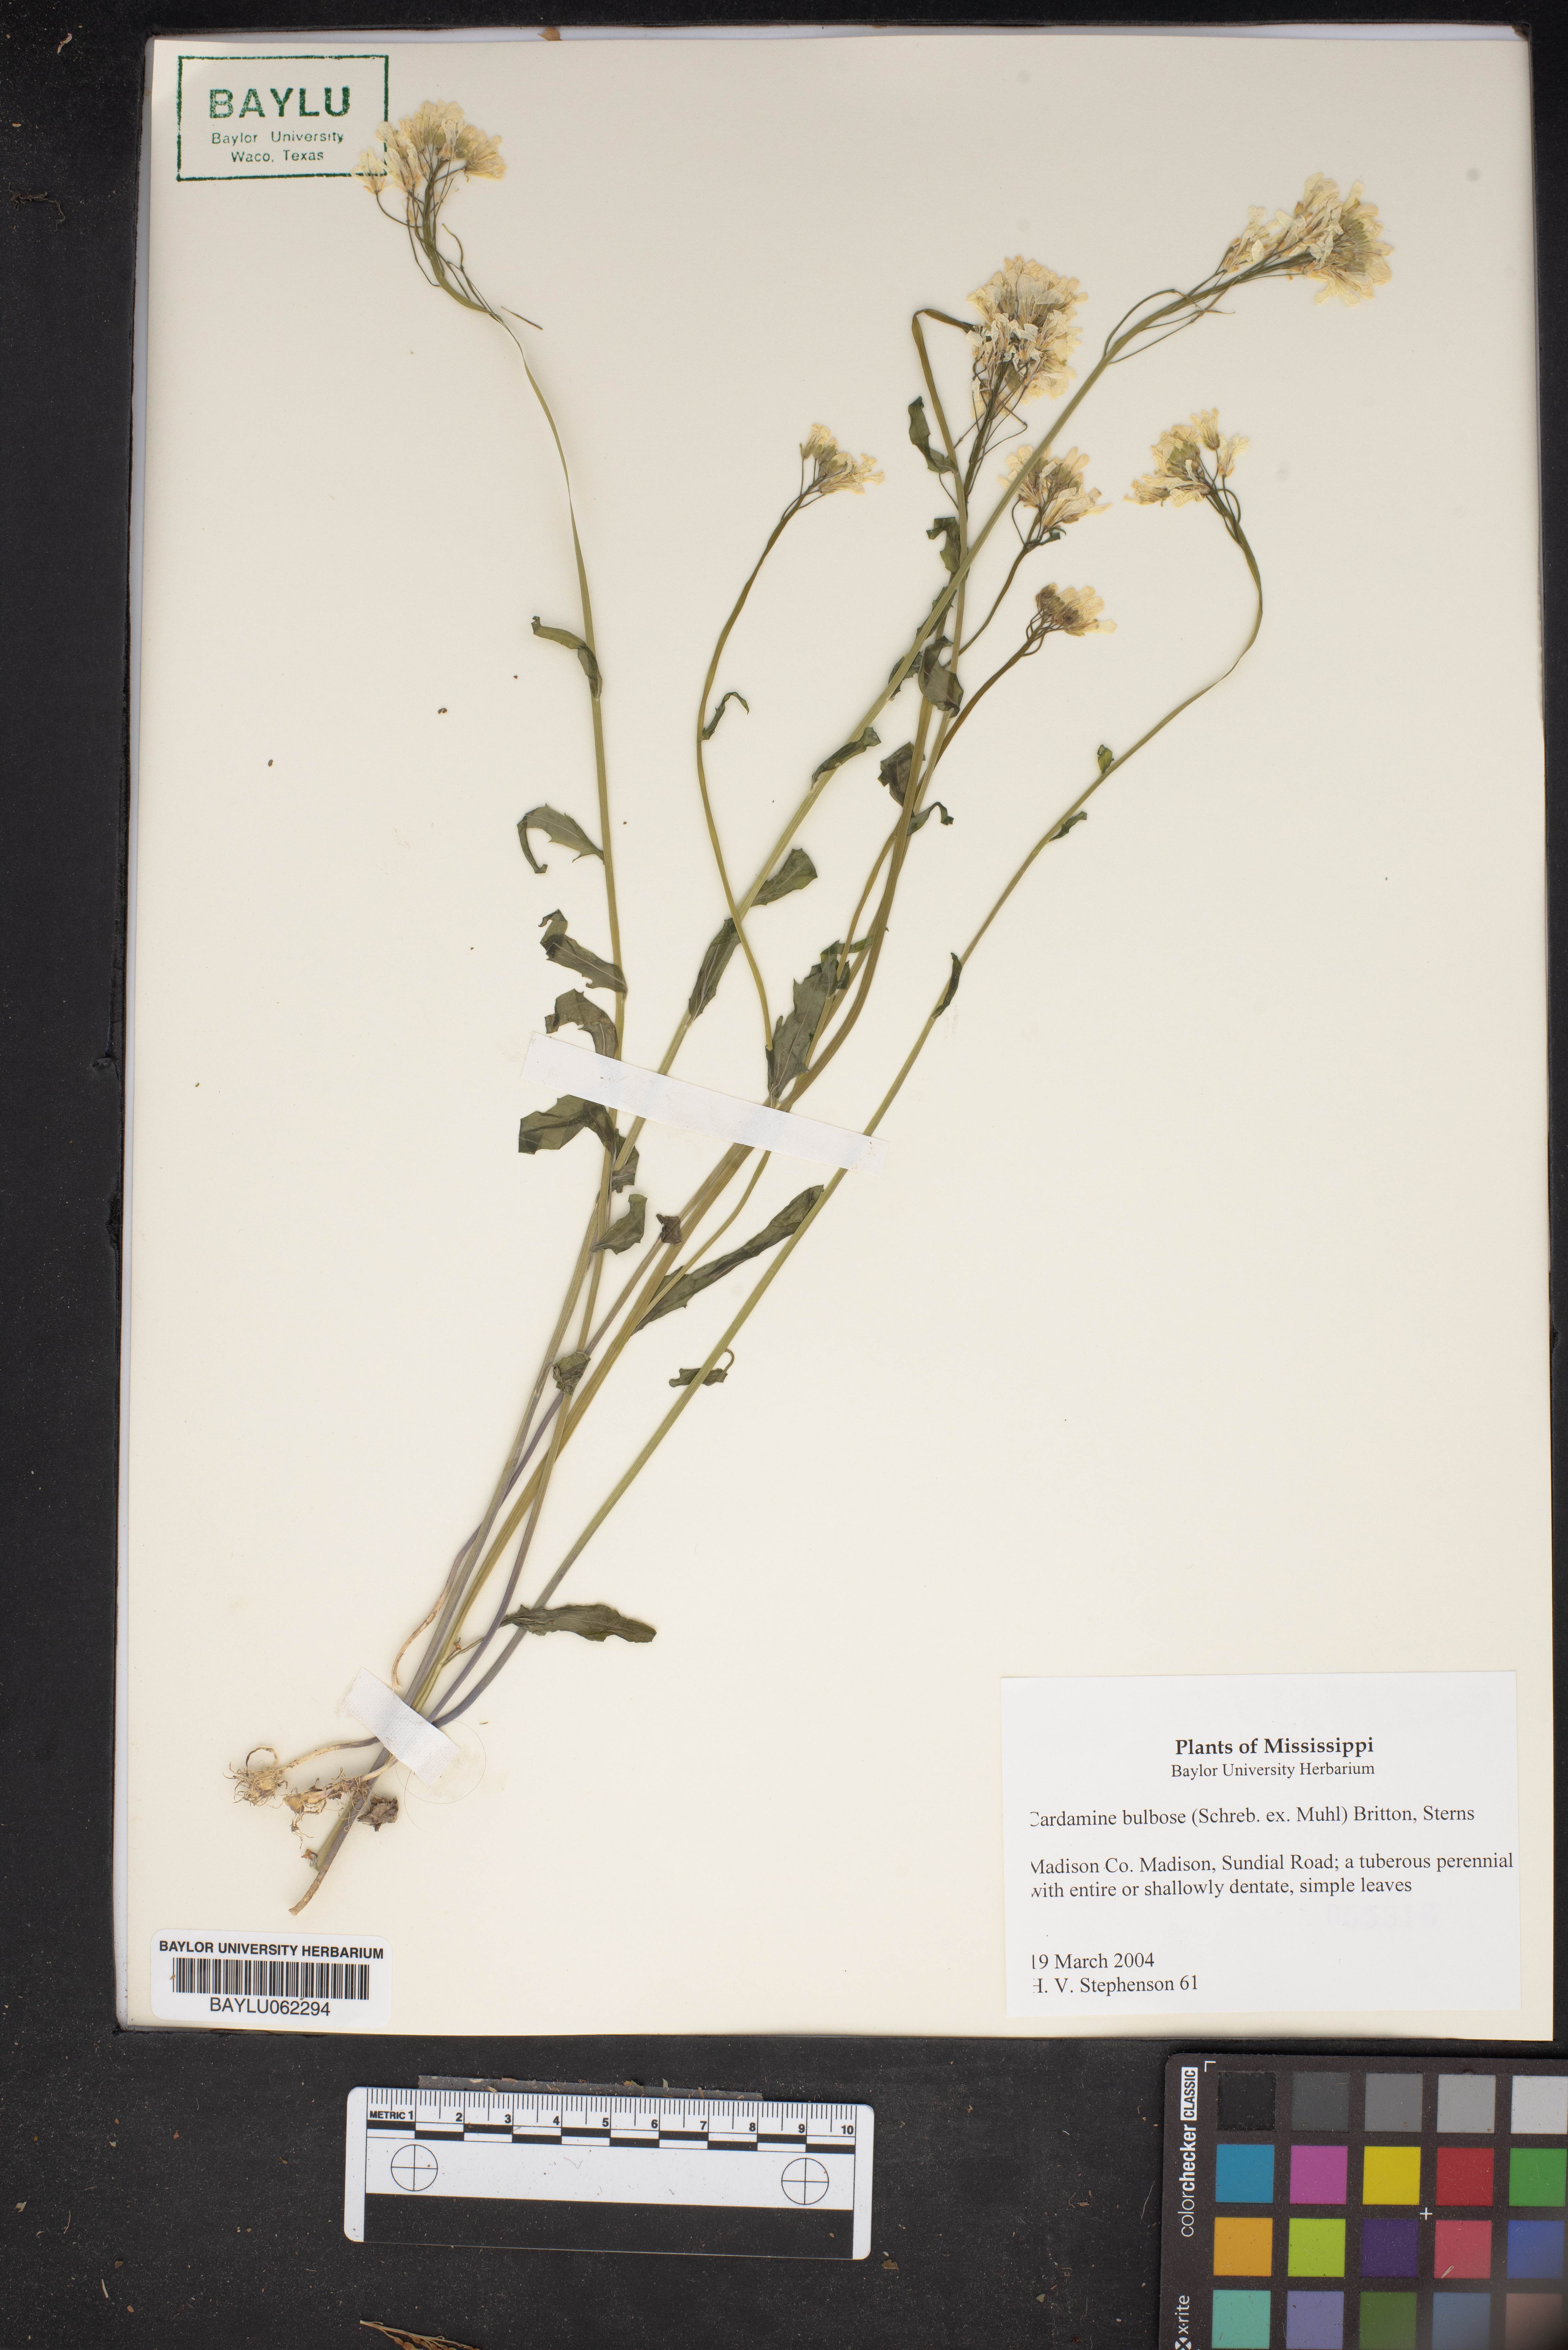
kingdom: Plantae
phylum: Tracheophyta
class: Magnoliopsida
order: Brassicales
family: Brassicaceae
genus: Cardamine
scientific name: Cardamine bulbosa
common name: Spring cress
